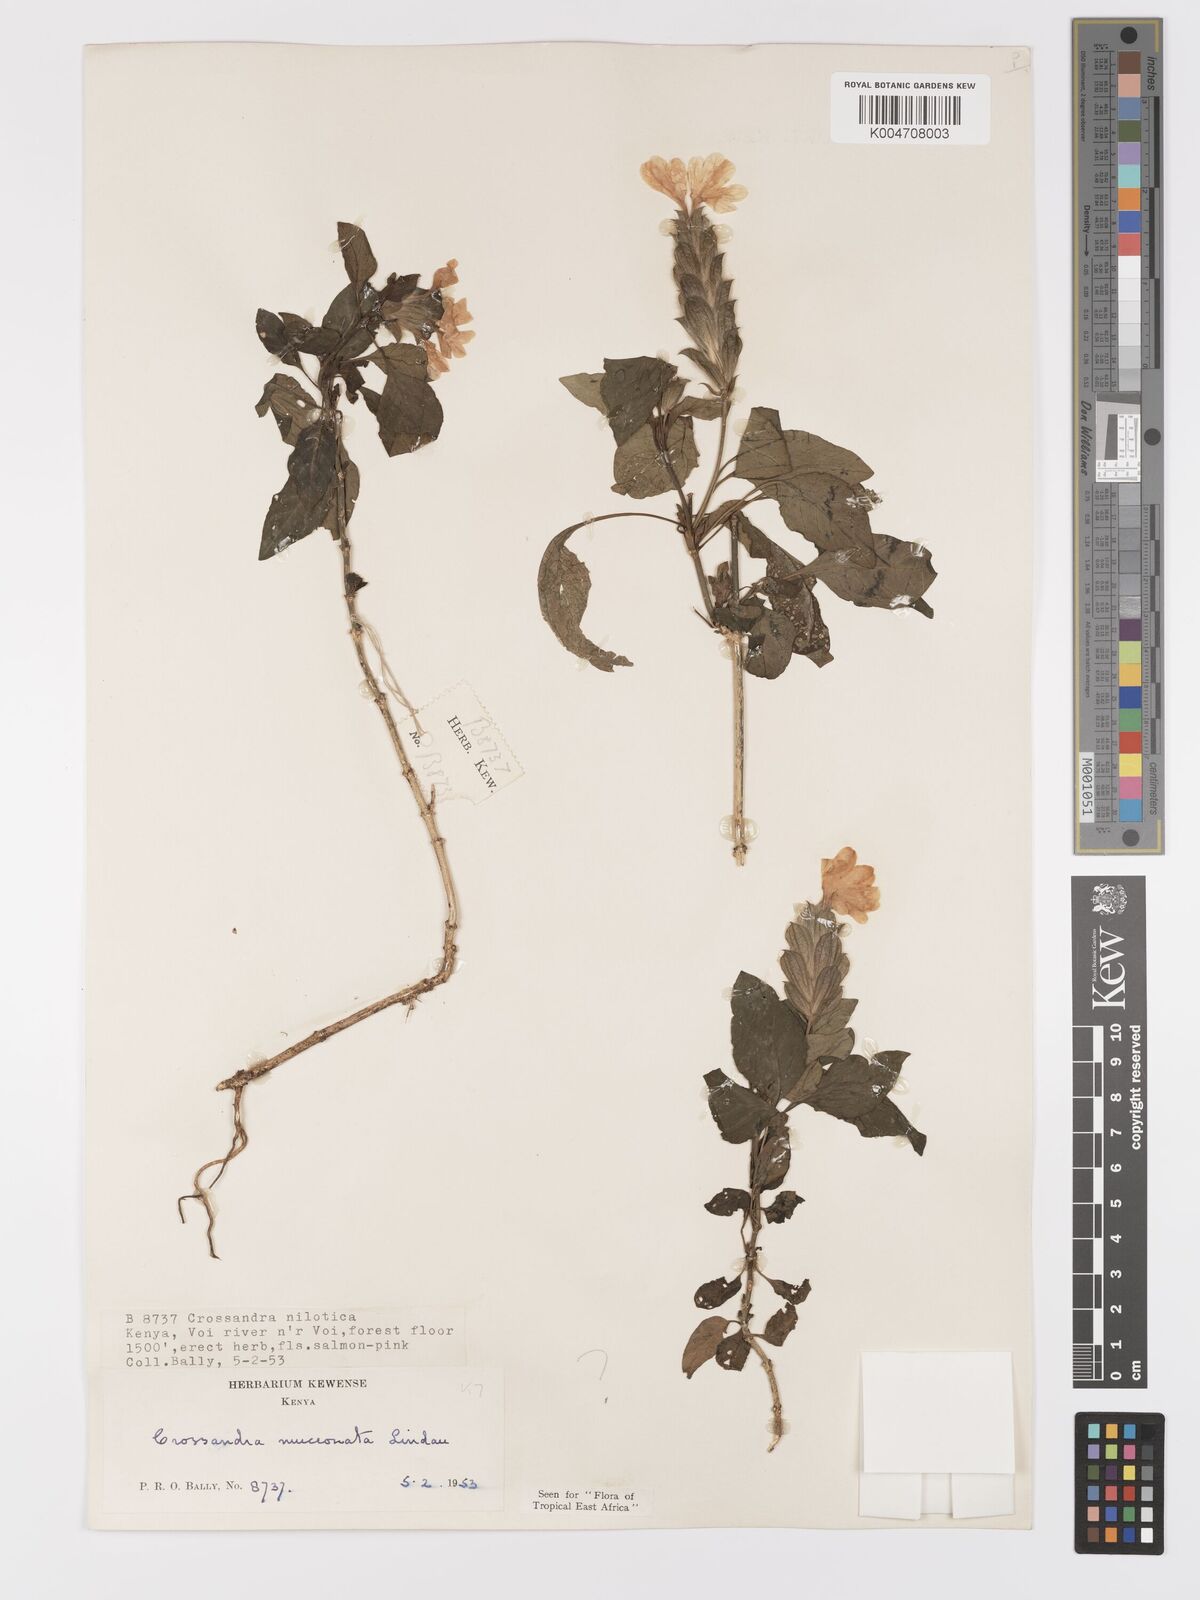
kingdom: Plantae
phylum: Tracheophyta
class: Magnoliopsida
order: Lamiales
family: Acanthaceae
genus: Crossandra
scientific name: Crossandra mucronata
